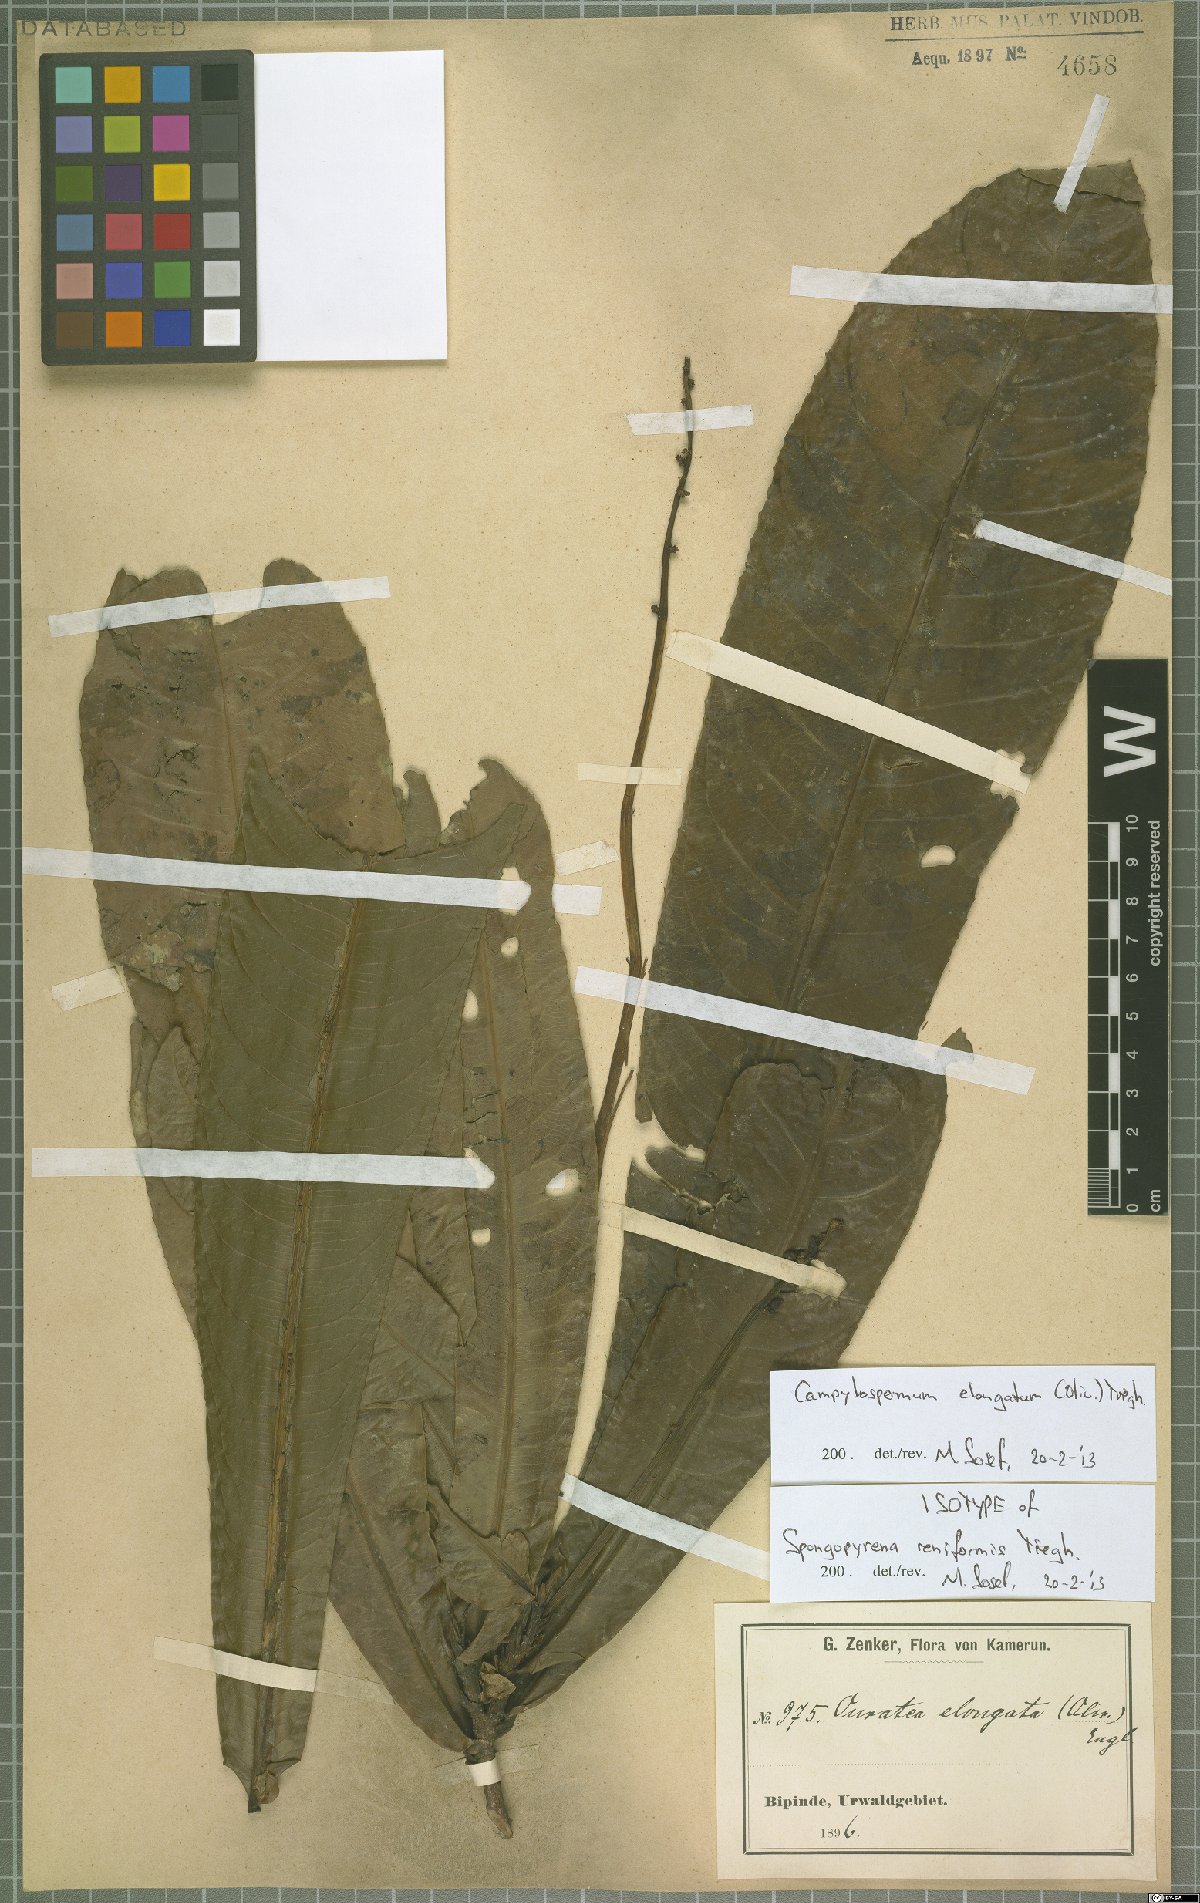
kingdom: Plantae
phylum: Tracheophyta
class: Magnoliopsida
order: Malpighiales
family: Ochnaceae
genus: Gomphia
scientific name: Gomphia elongata
